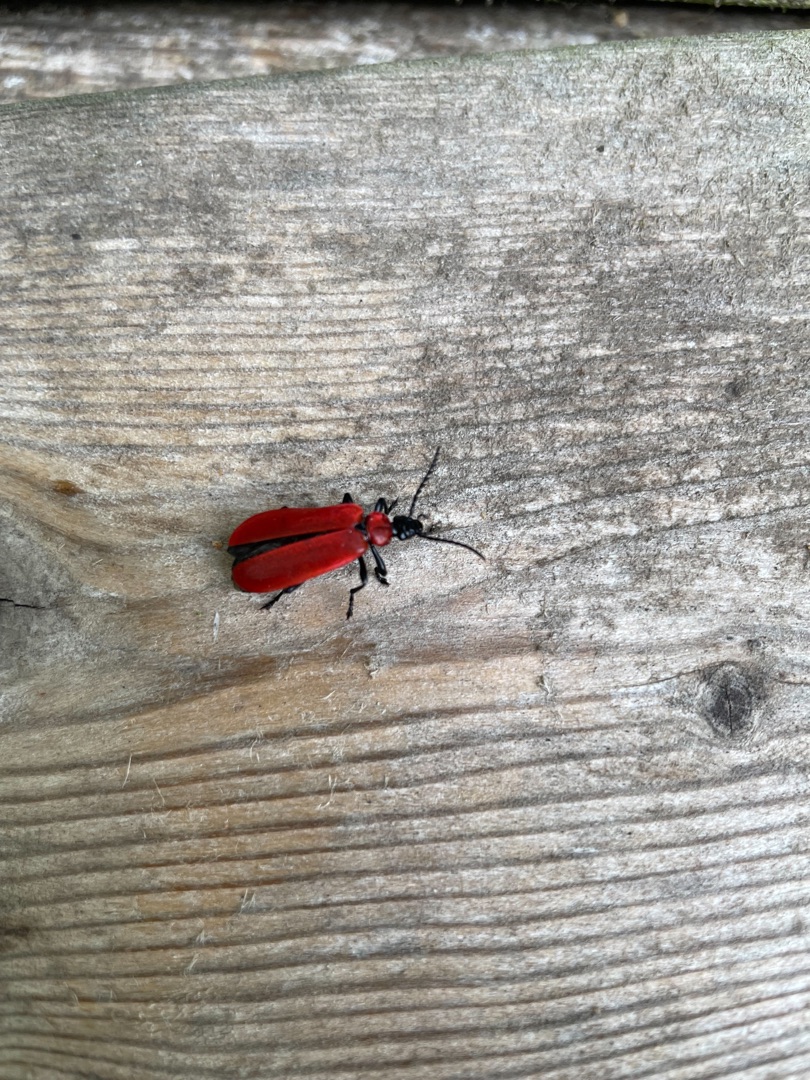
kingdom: Animalia
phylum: Arthropoda
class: Insecta
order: Coleoptera
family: Pyrochroidae
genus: Pyrochroa
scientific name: Pyrochroa coccinea
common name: Sorthovedet kardinalbille
